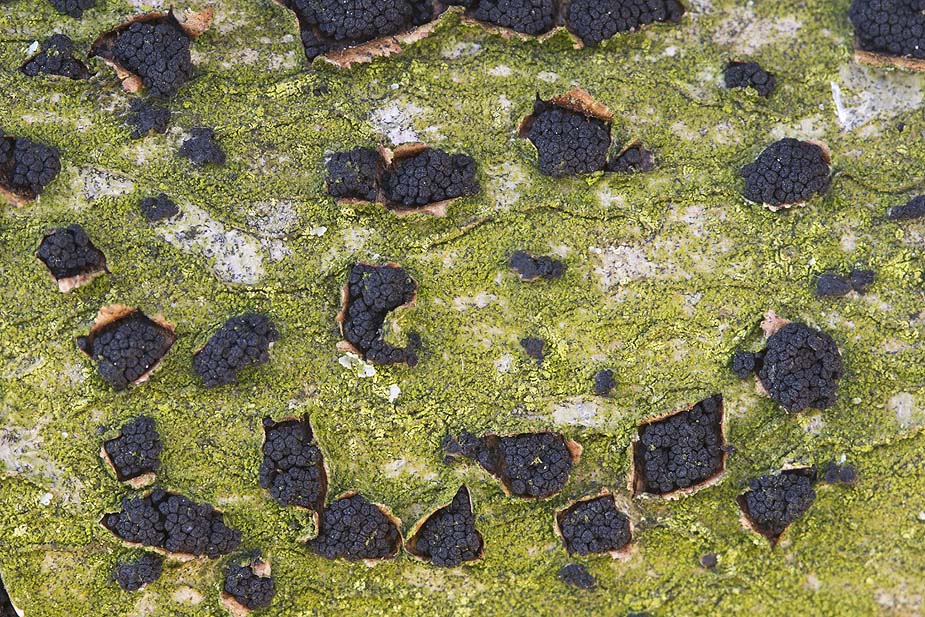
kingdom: Fungi
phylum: Ascomycota
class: Sordariomycetes
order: Coronophorales
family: Nitschkiaceae
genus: Nitschkia
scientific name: Nitschkia parasitans
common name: snyltende skålkerne
